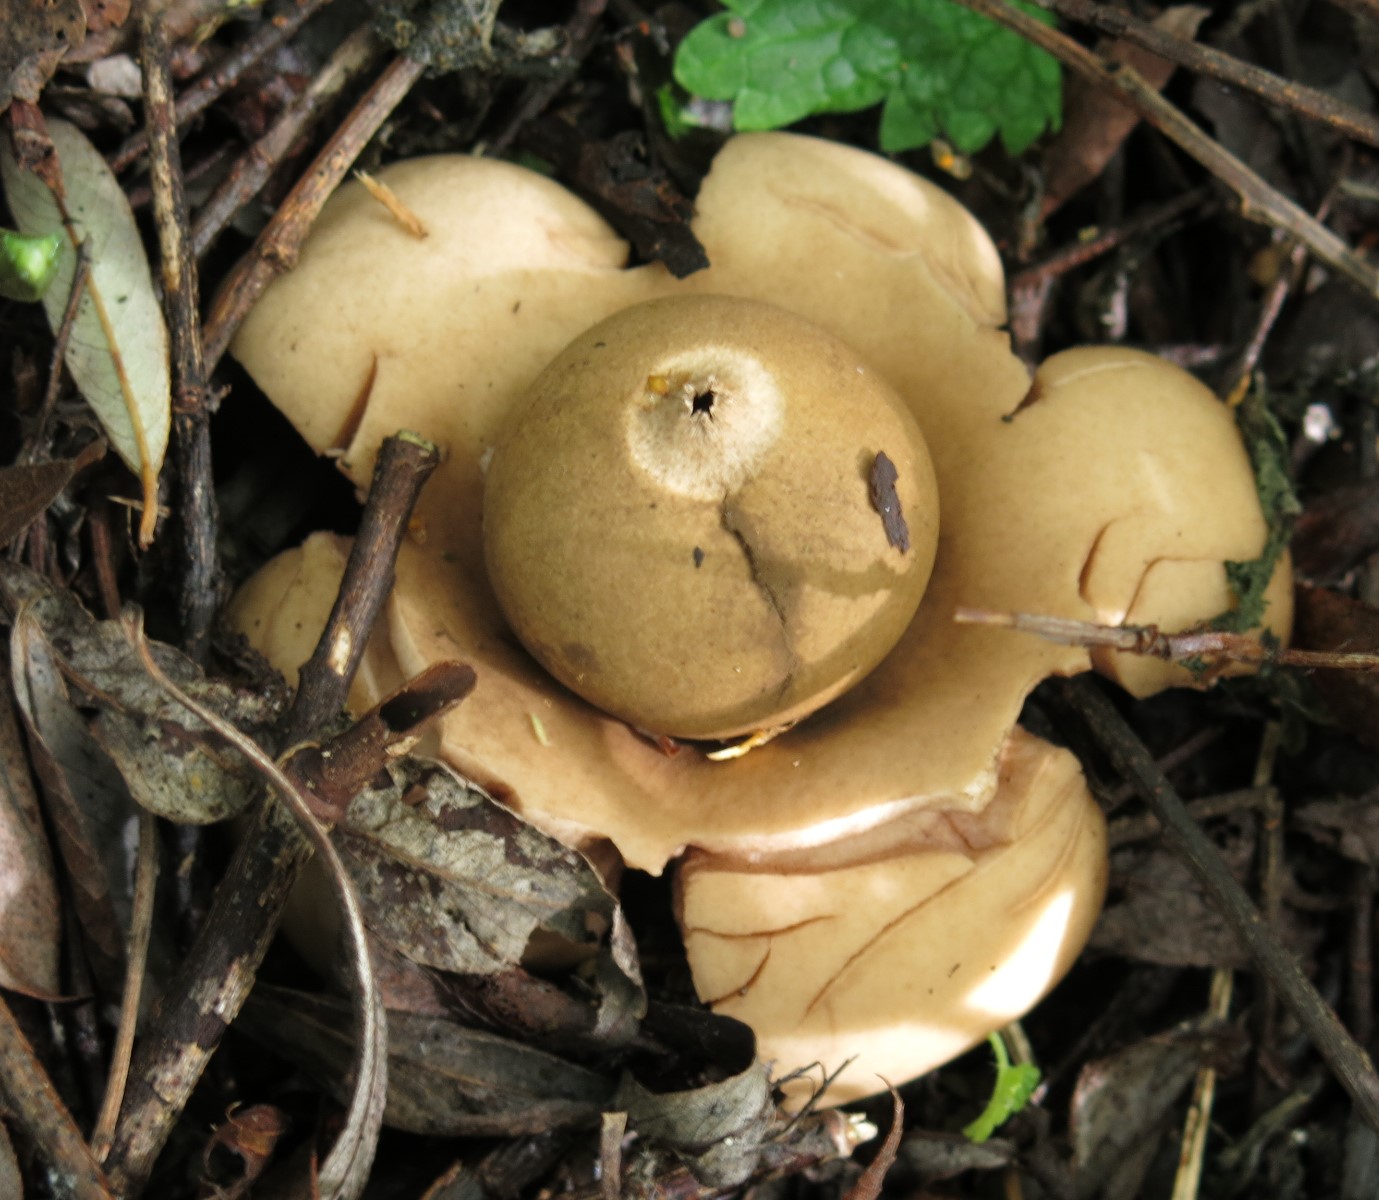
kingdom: Fungi
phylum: Basidiomycota
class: Agaricomycetes
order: Geastrales
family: Geastraceae
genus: Geastrum
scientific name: Geastrum michelianum
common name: kødet stjernebold
